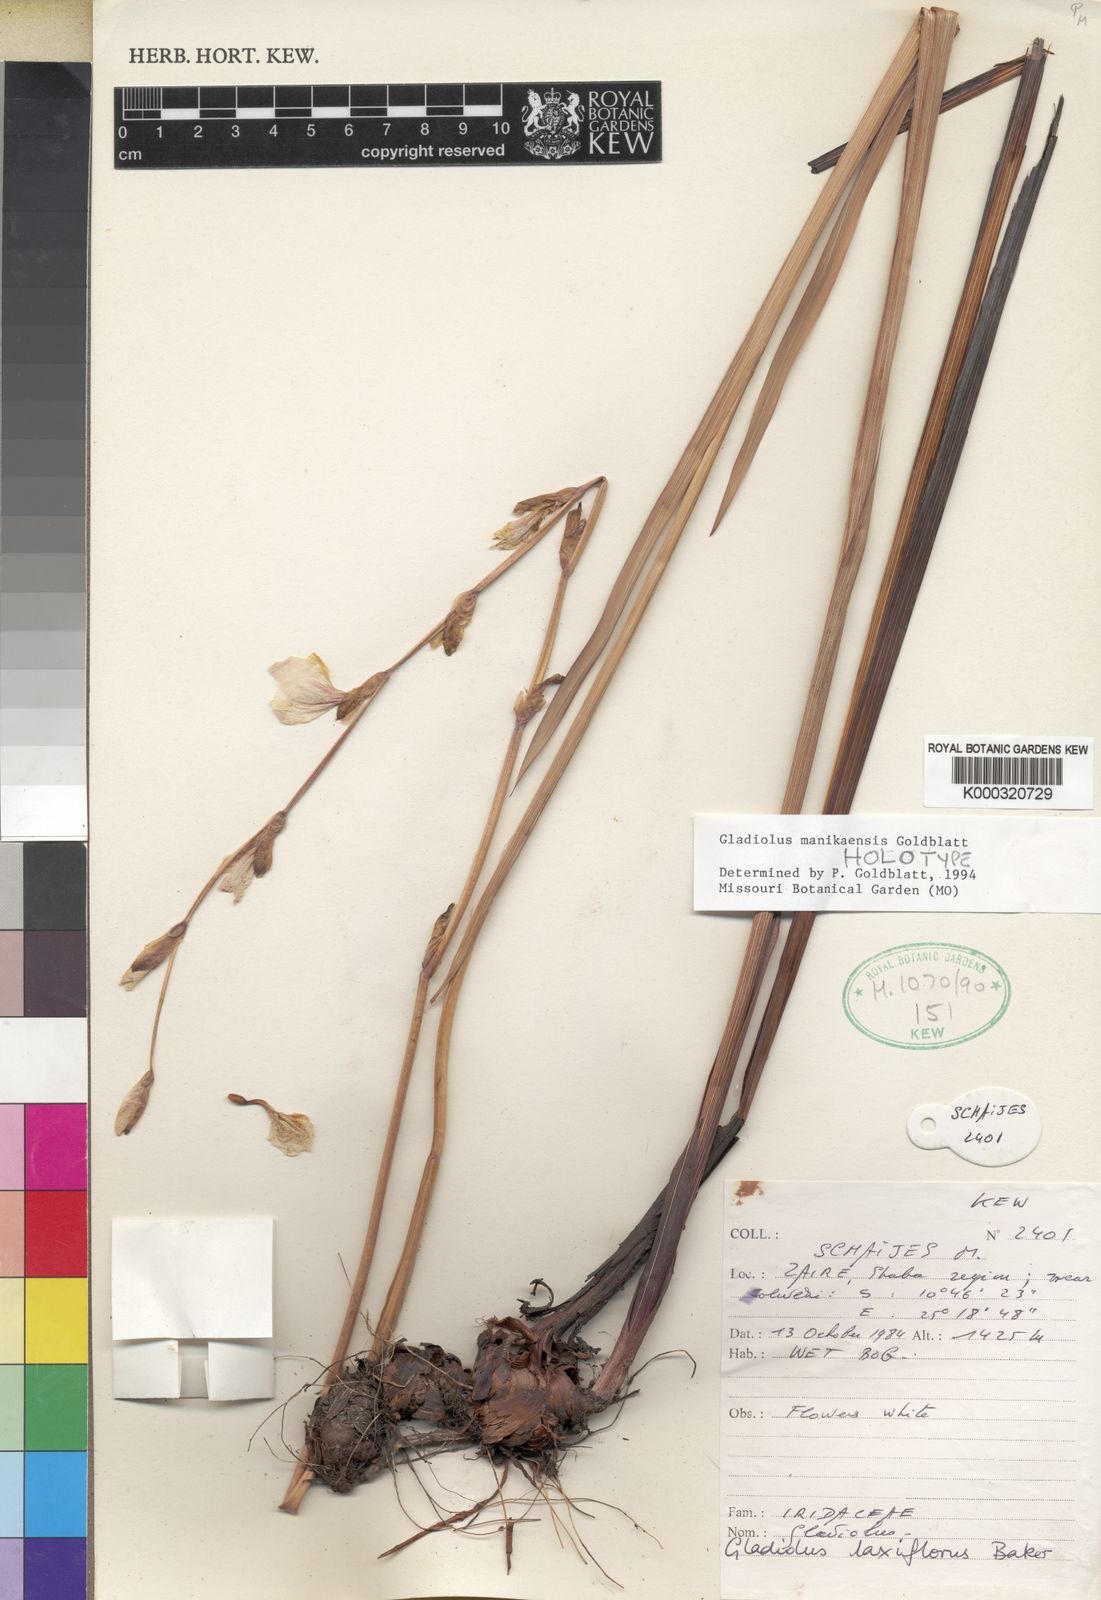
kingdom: Plantae
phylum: Tracheophyta
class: Liliopsida
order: Asparagales
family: Iridaceae
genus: Gladiolus
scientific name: Gladiolus manikaensis
